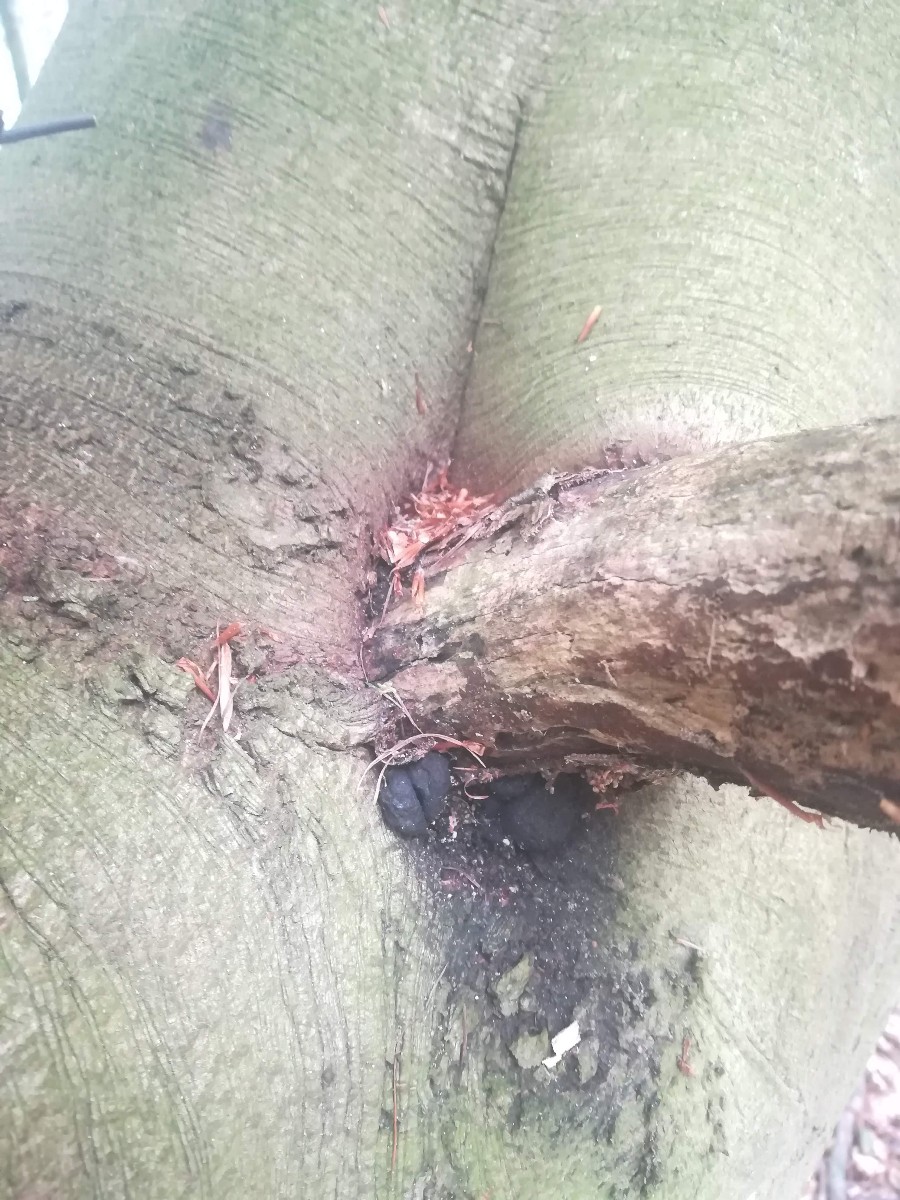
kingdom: Fungi
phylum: Ascomycota
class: Sordariomycetes
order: Xylariales
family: Xylariaceae
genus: Xylaria
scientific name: Xylaria polymorpha
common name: kølle-stødsvamp
